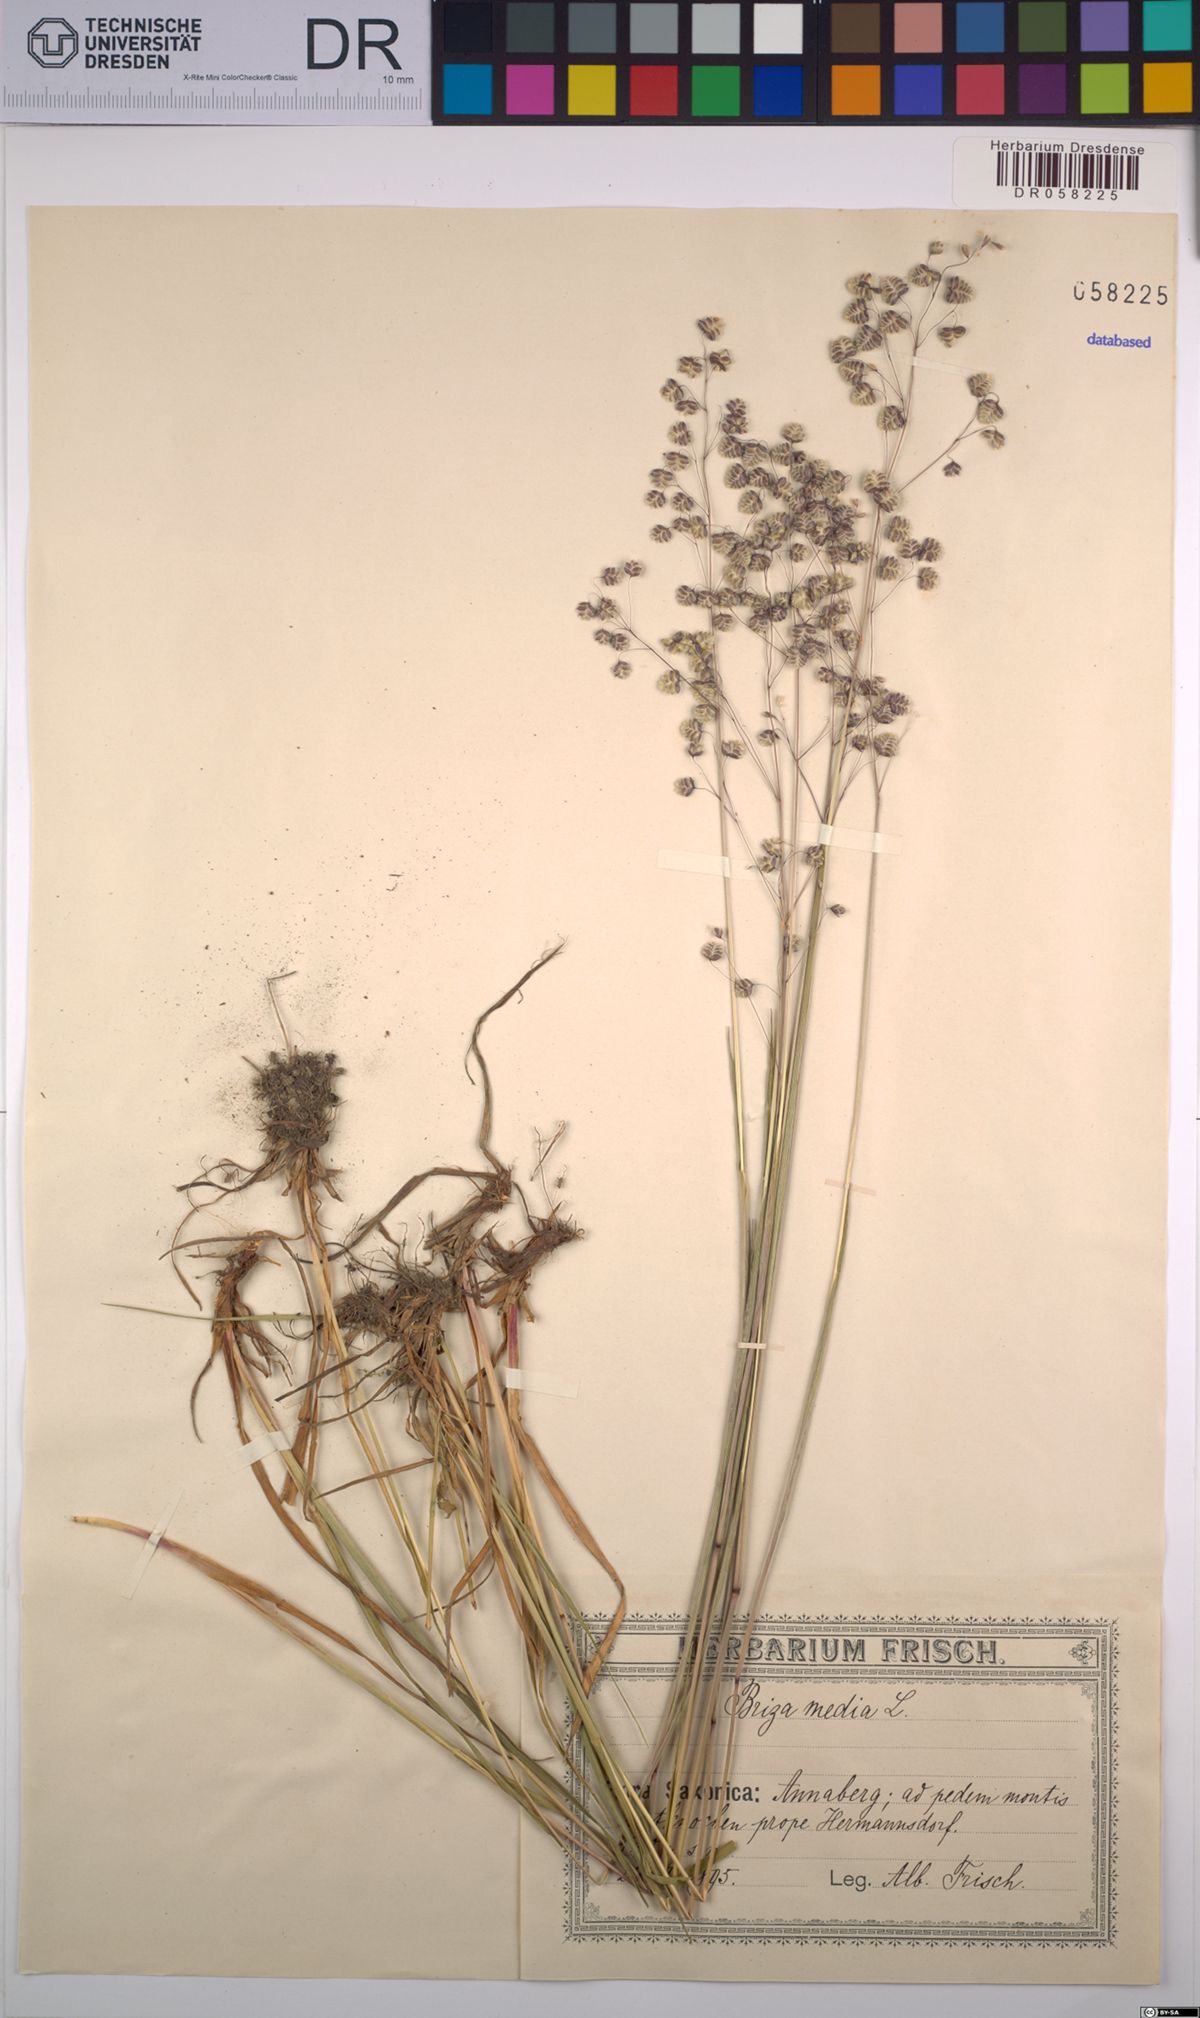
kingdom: Plantae
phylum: Tracheophyta
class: Liliopsida
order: Poales
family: Poaceae
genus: Briza
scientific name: Briza media
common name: Quaking grass
